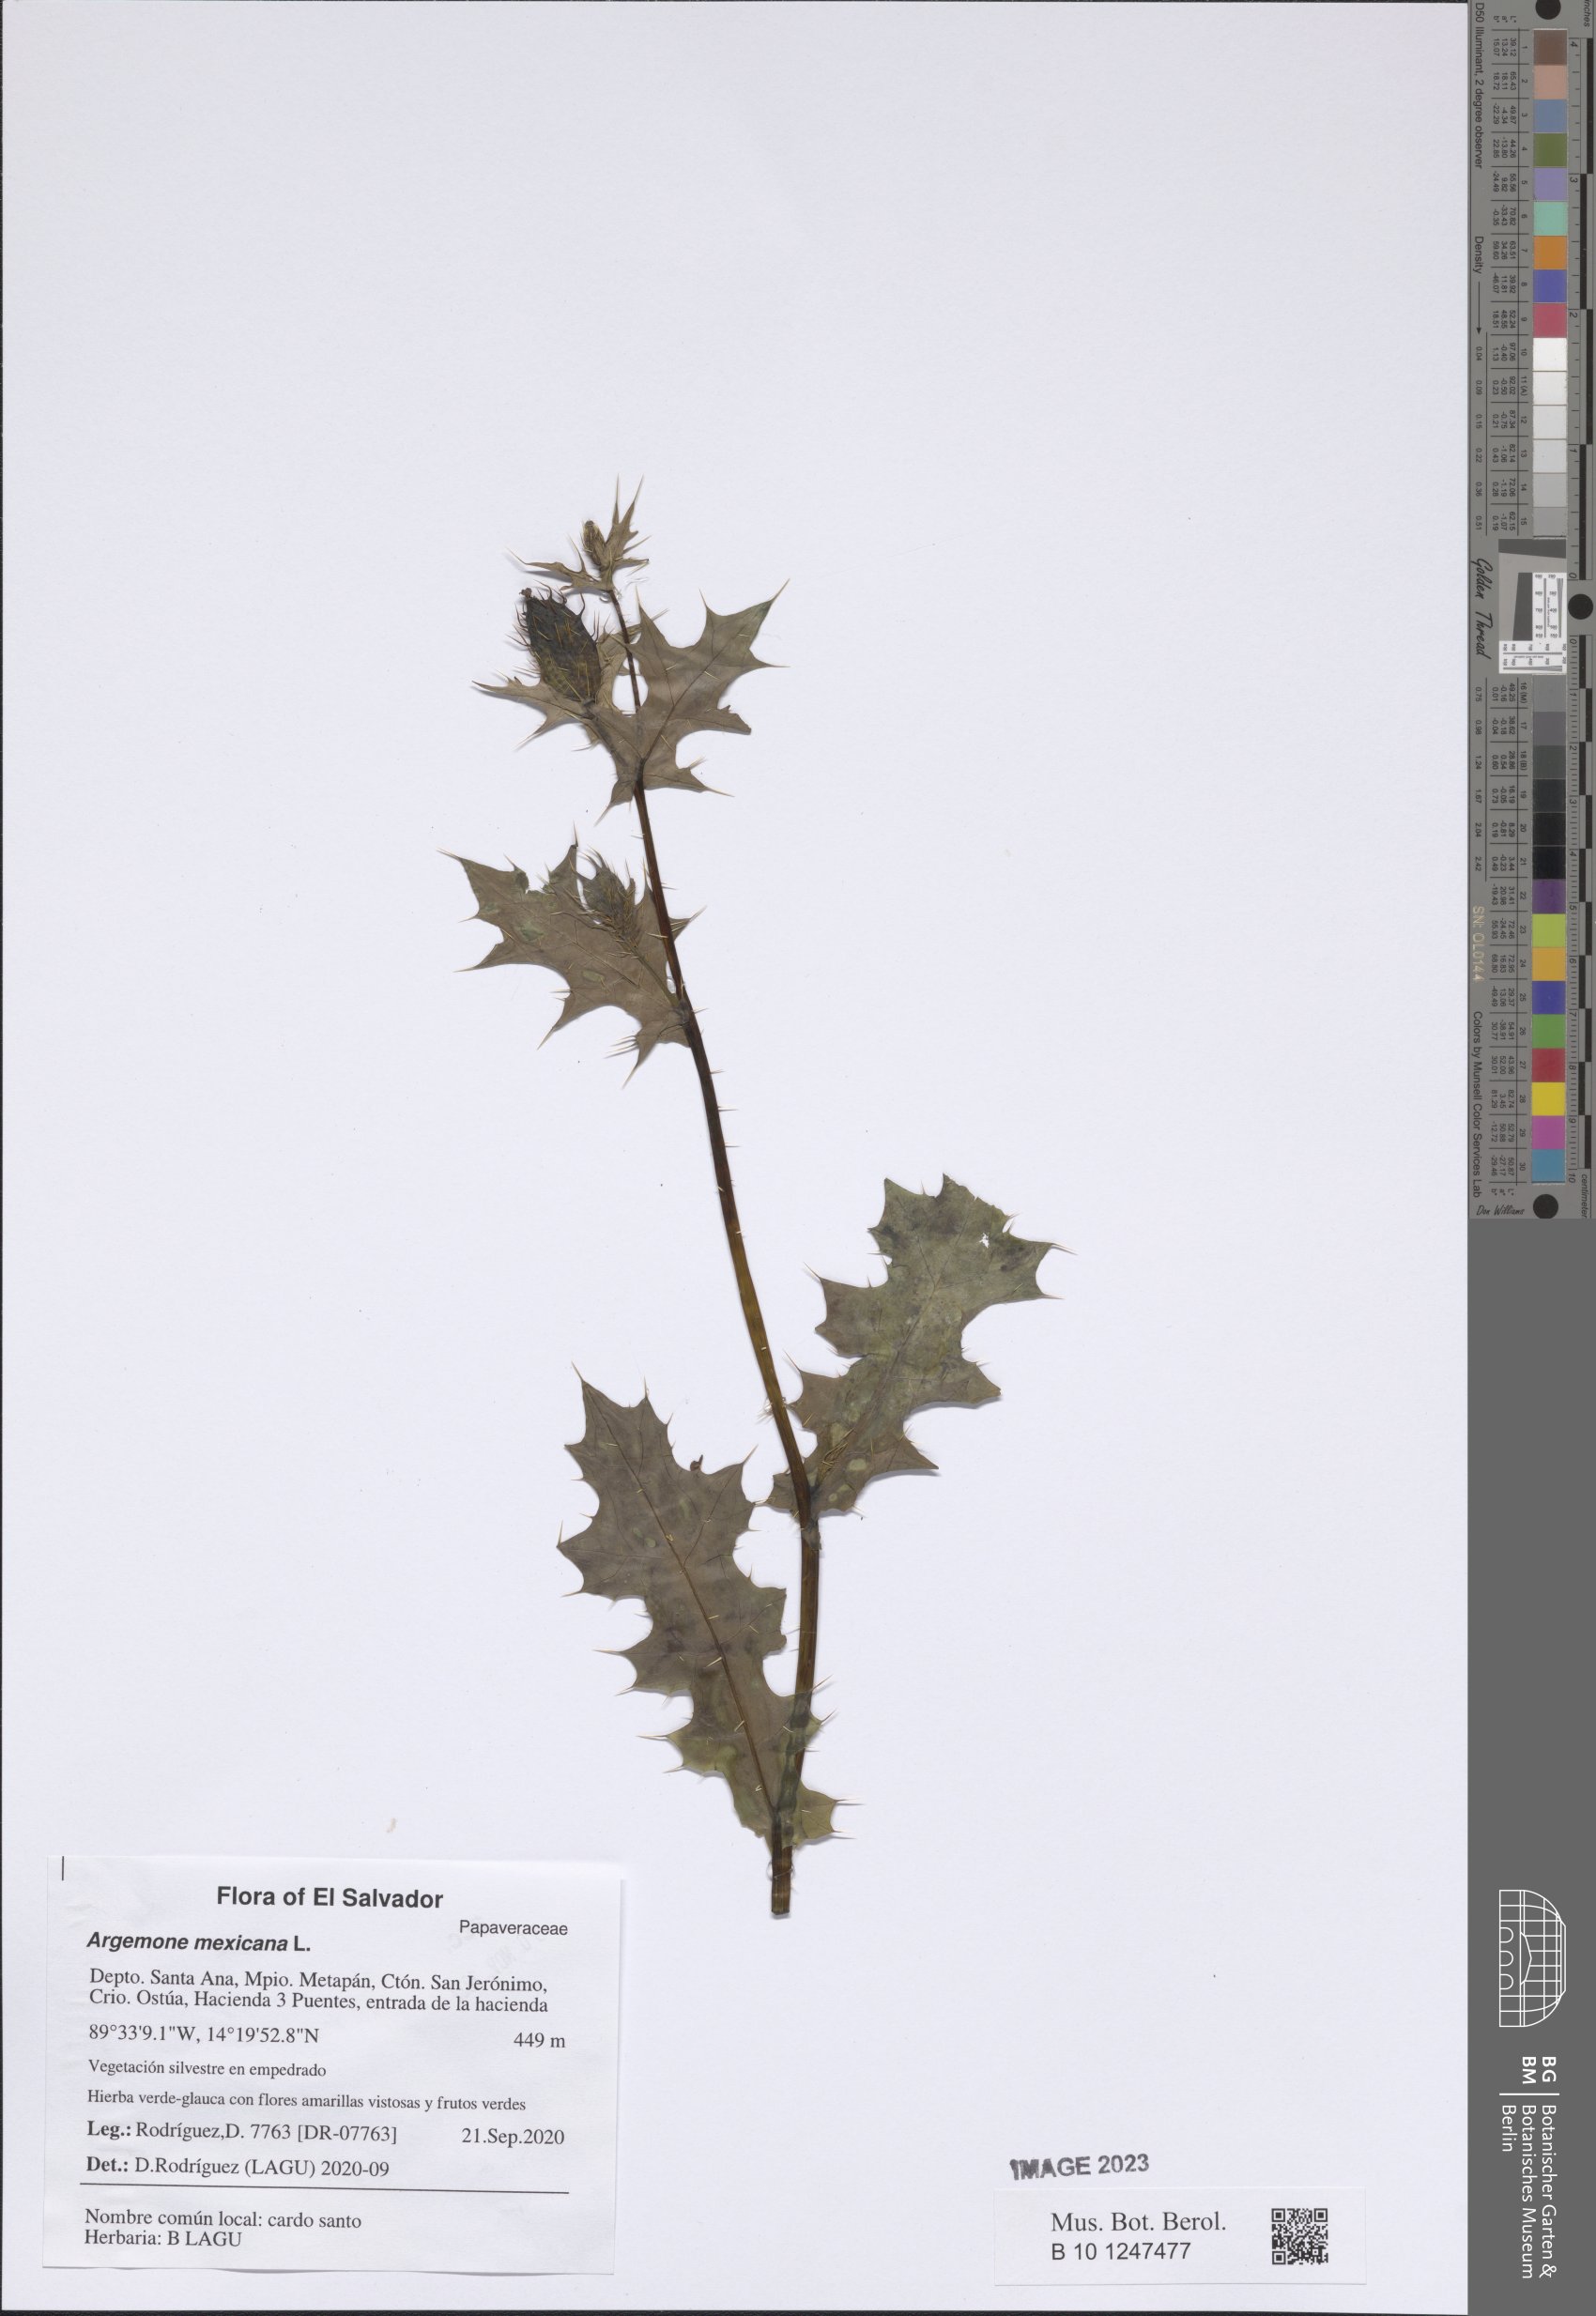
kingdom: Plantae
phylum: Tracheophyta
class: Magnoliopsida
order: Ranunculales
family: Papaveraceae
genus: Argemone
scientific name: Argemone mexicana
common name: Mexican poppy
